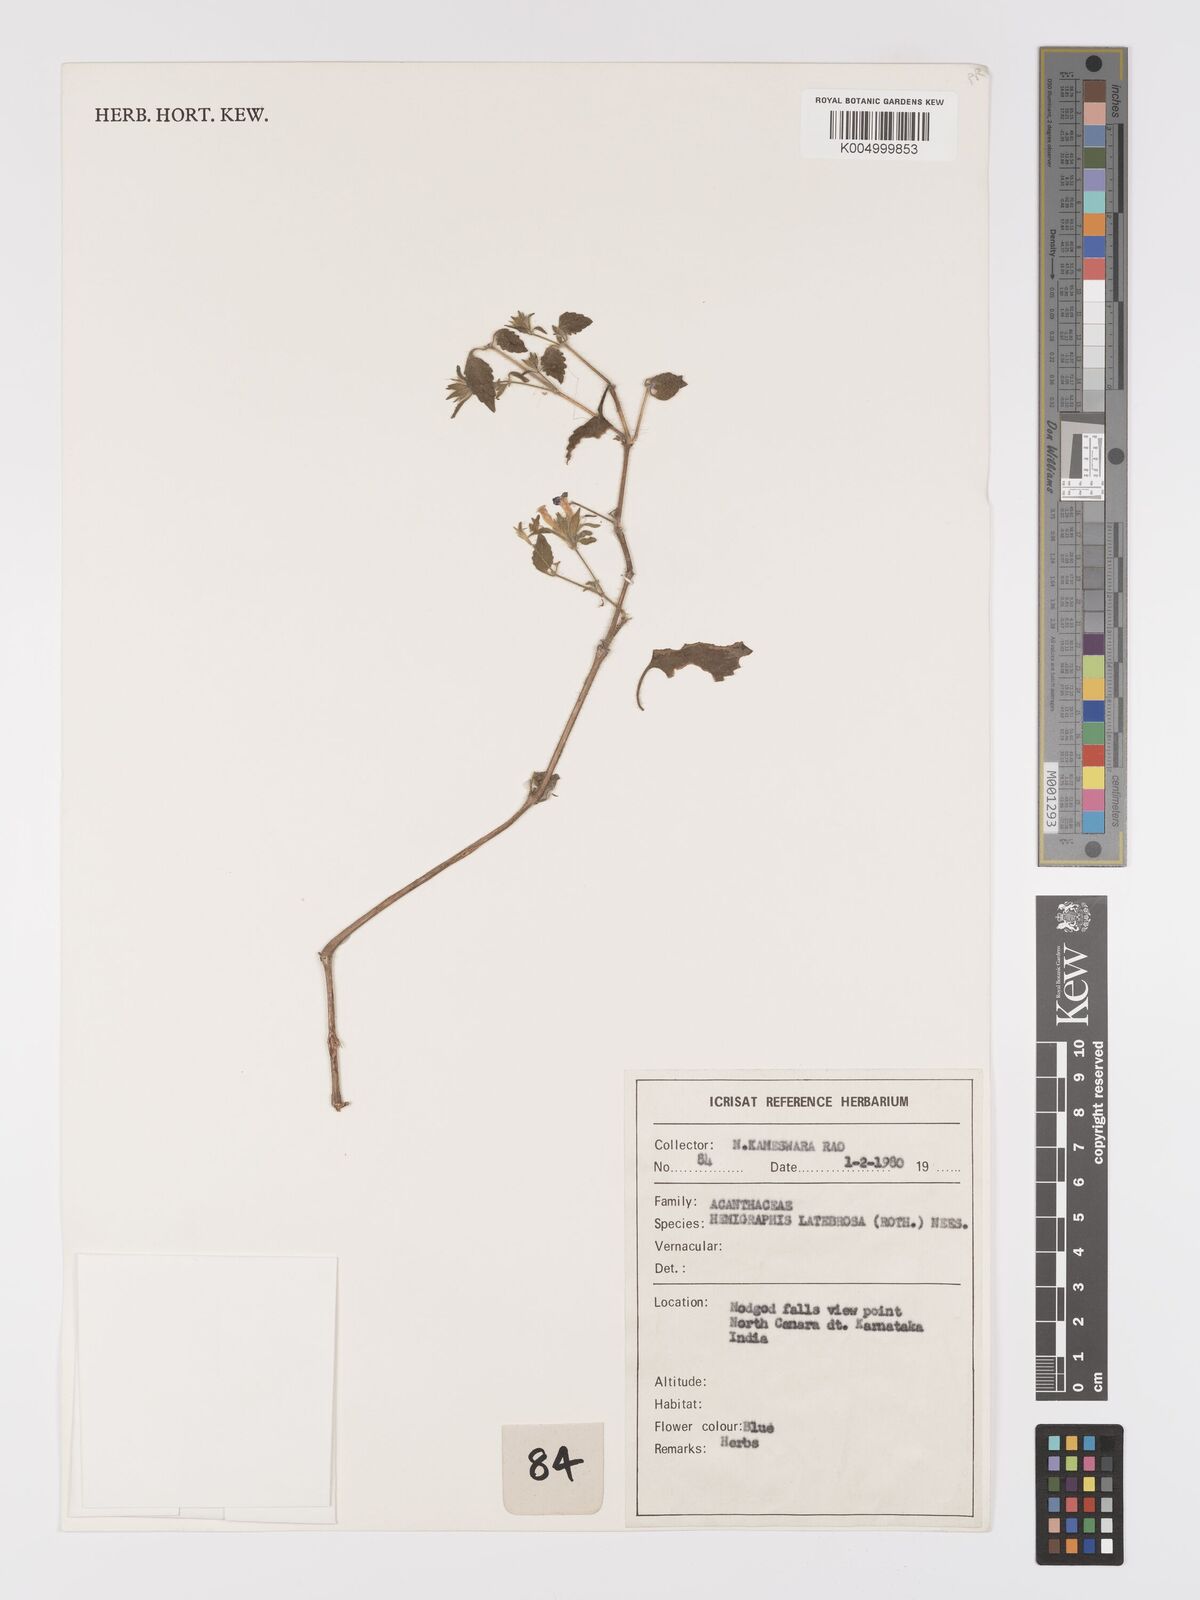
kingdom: Plantae
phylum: Tracheophyta
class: Magnoliopsida
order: Lamiales
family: Acanthaceae
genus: Strobilanthes
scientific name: Strobilanthes pavala
